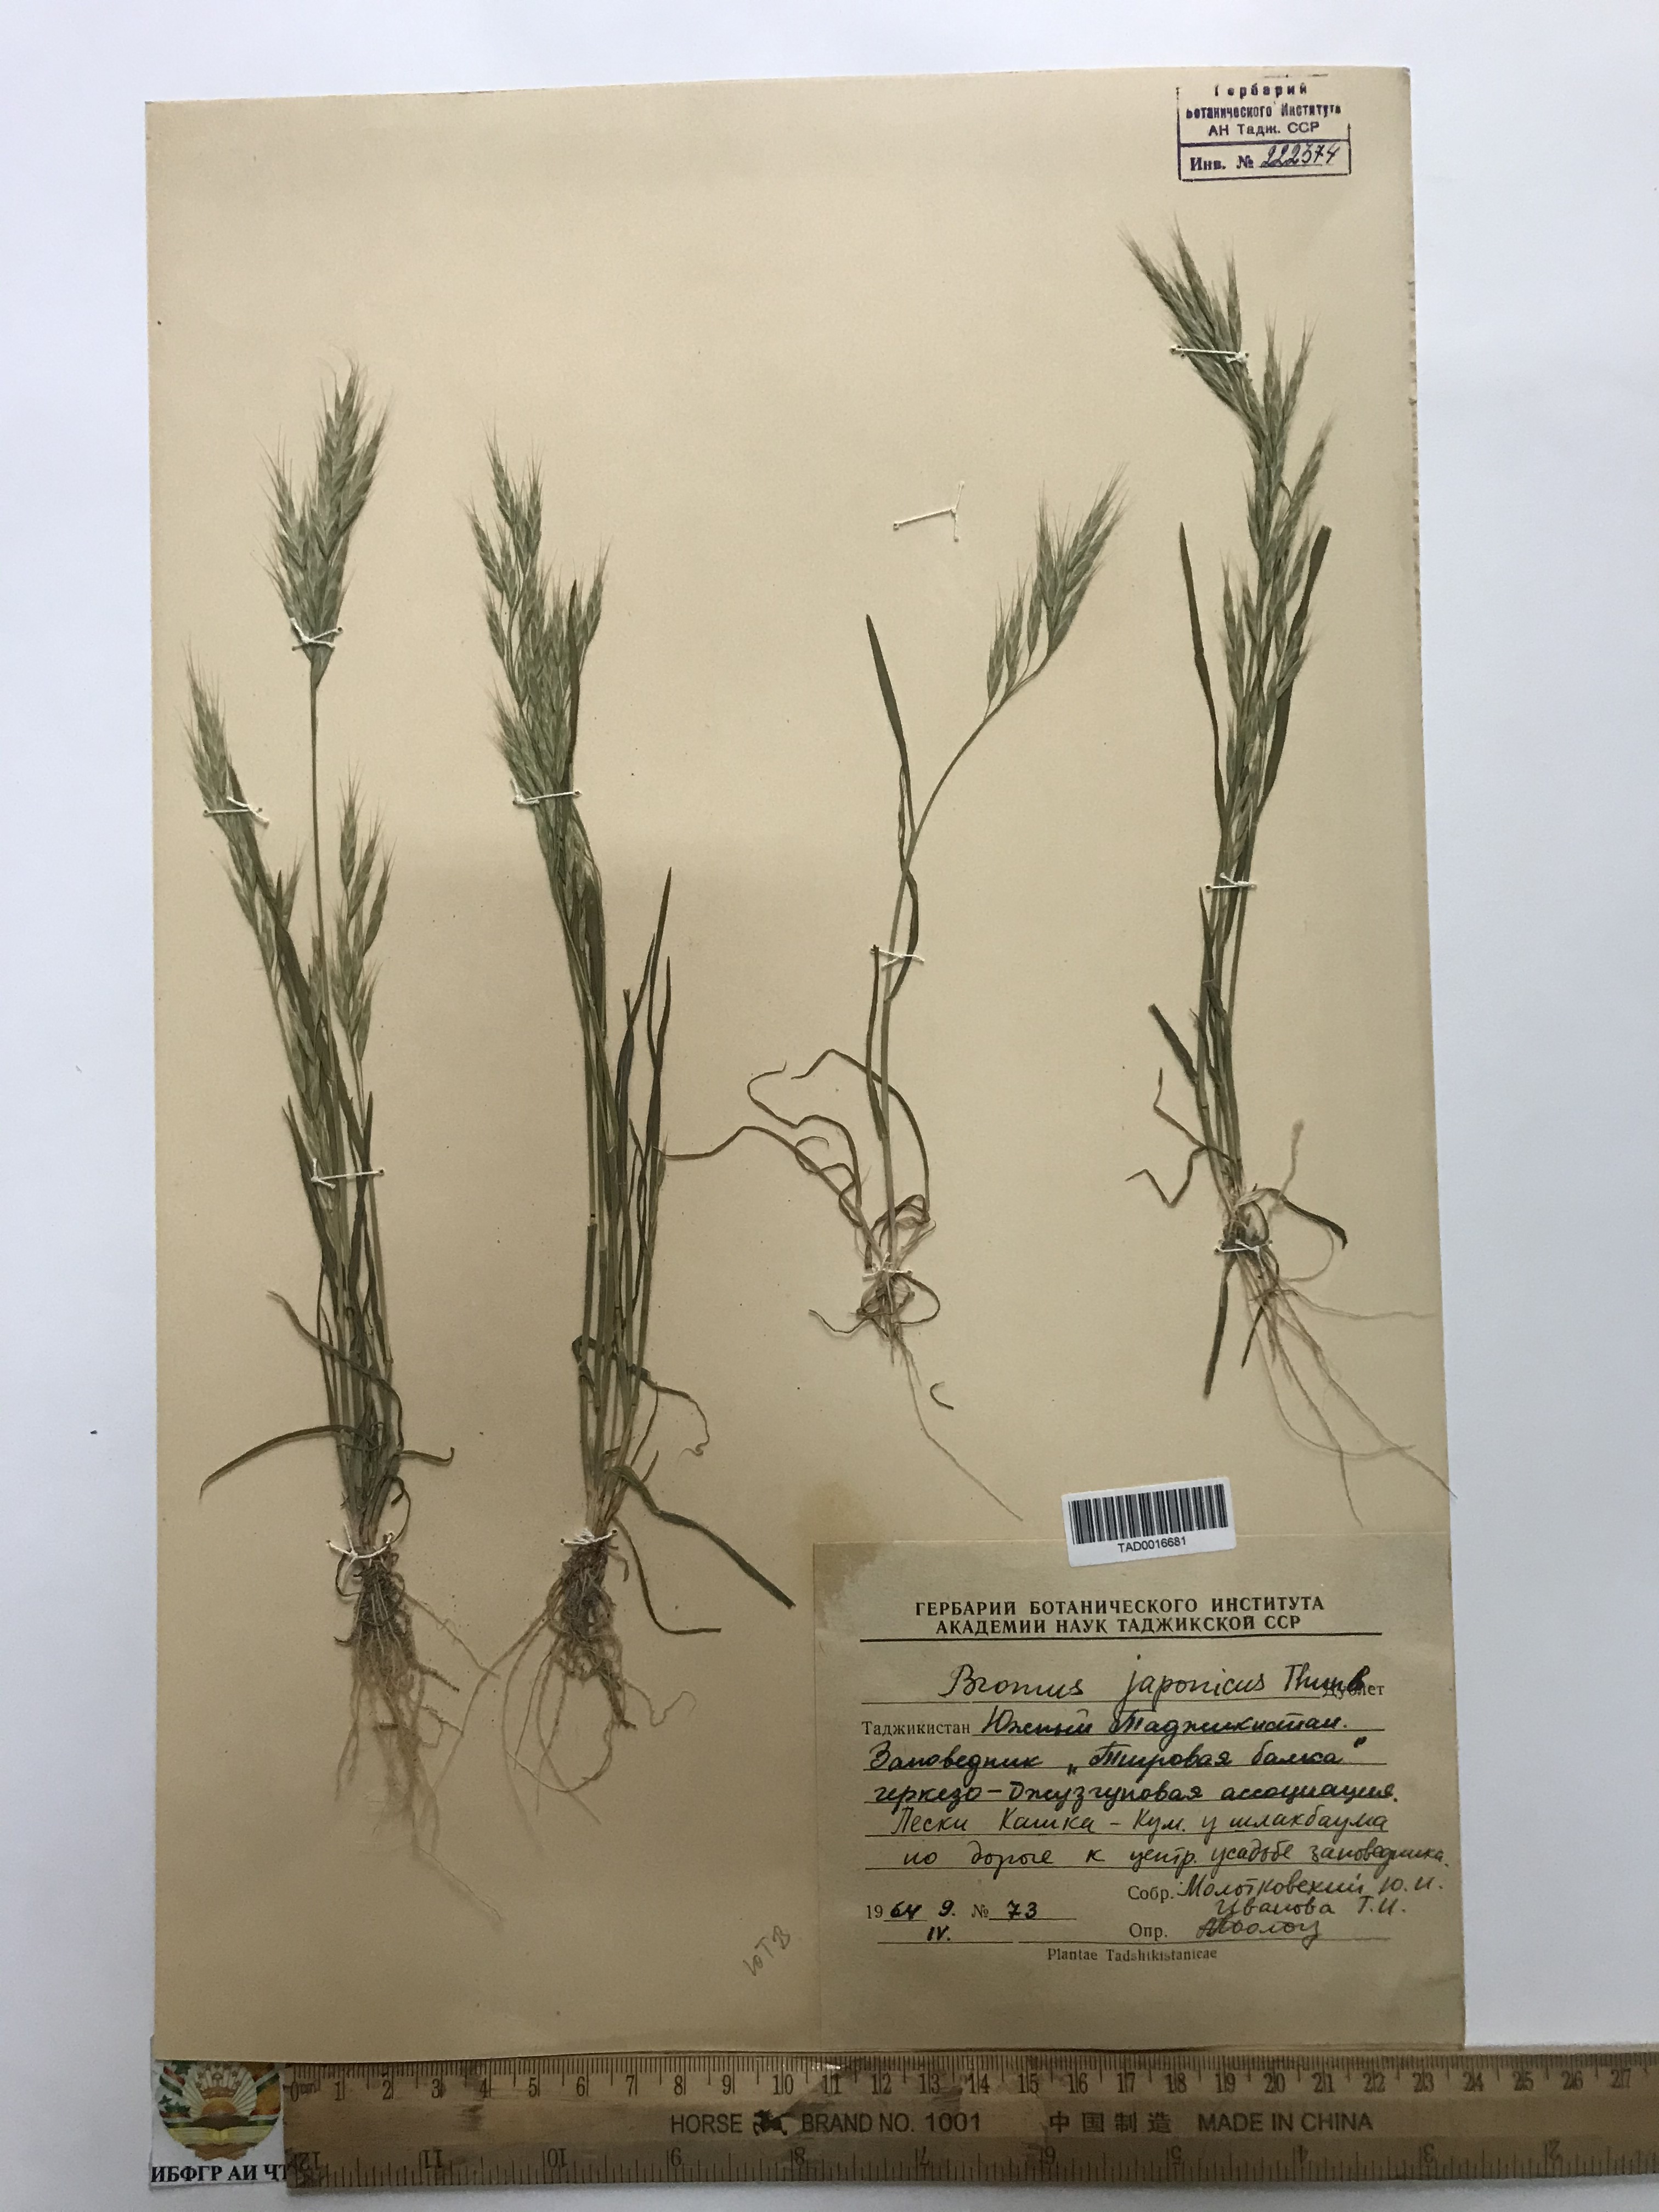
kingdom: Plantae
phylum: Tracheophyta
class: Liliopsida
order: Poales
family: Poaceae
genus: Bromus
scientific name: Bromus japonicus
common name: Japanese brome
